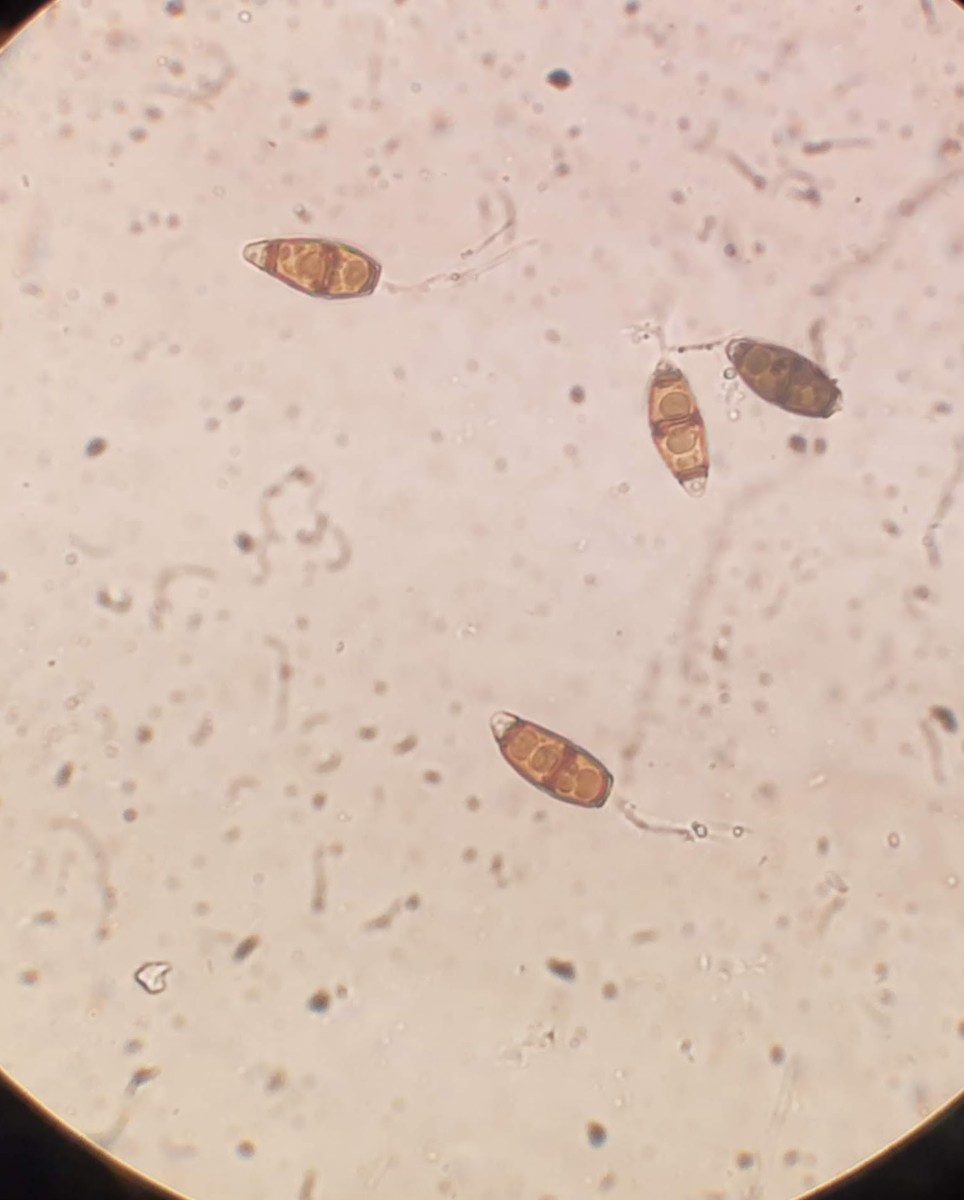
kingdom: Fungi
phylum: Ascomycota
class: Sordariomycetes
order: Amphisphaeriales
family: Bartaliniaceae
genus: Truncatella
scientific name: Truncatella angustata
